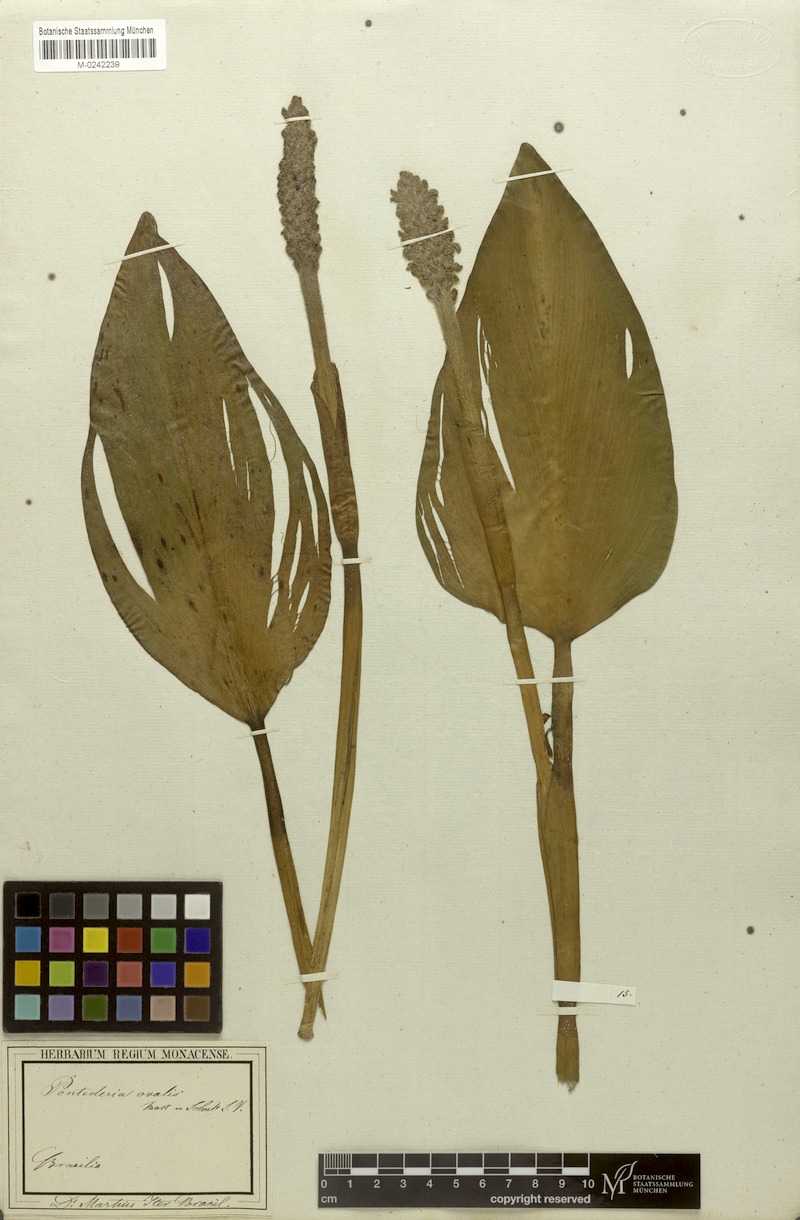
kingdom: Plantae
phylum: Tracheophyta
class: Liliopsida
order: Commelinales
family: Pontederiaceae
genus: Pontederia
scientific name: Pontederia cordata
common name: Pickerelweed
